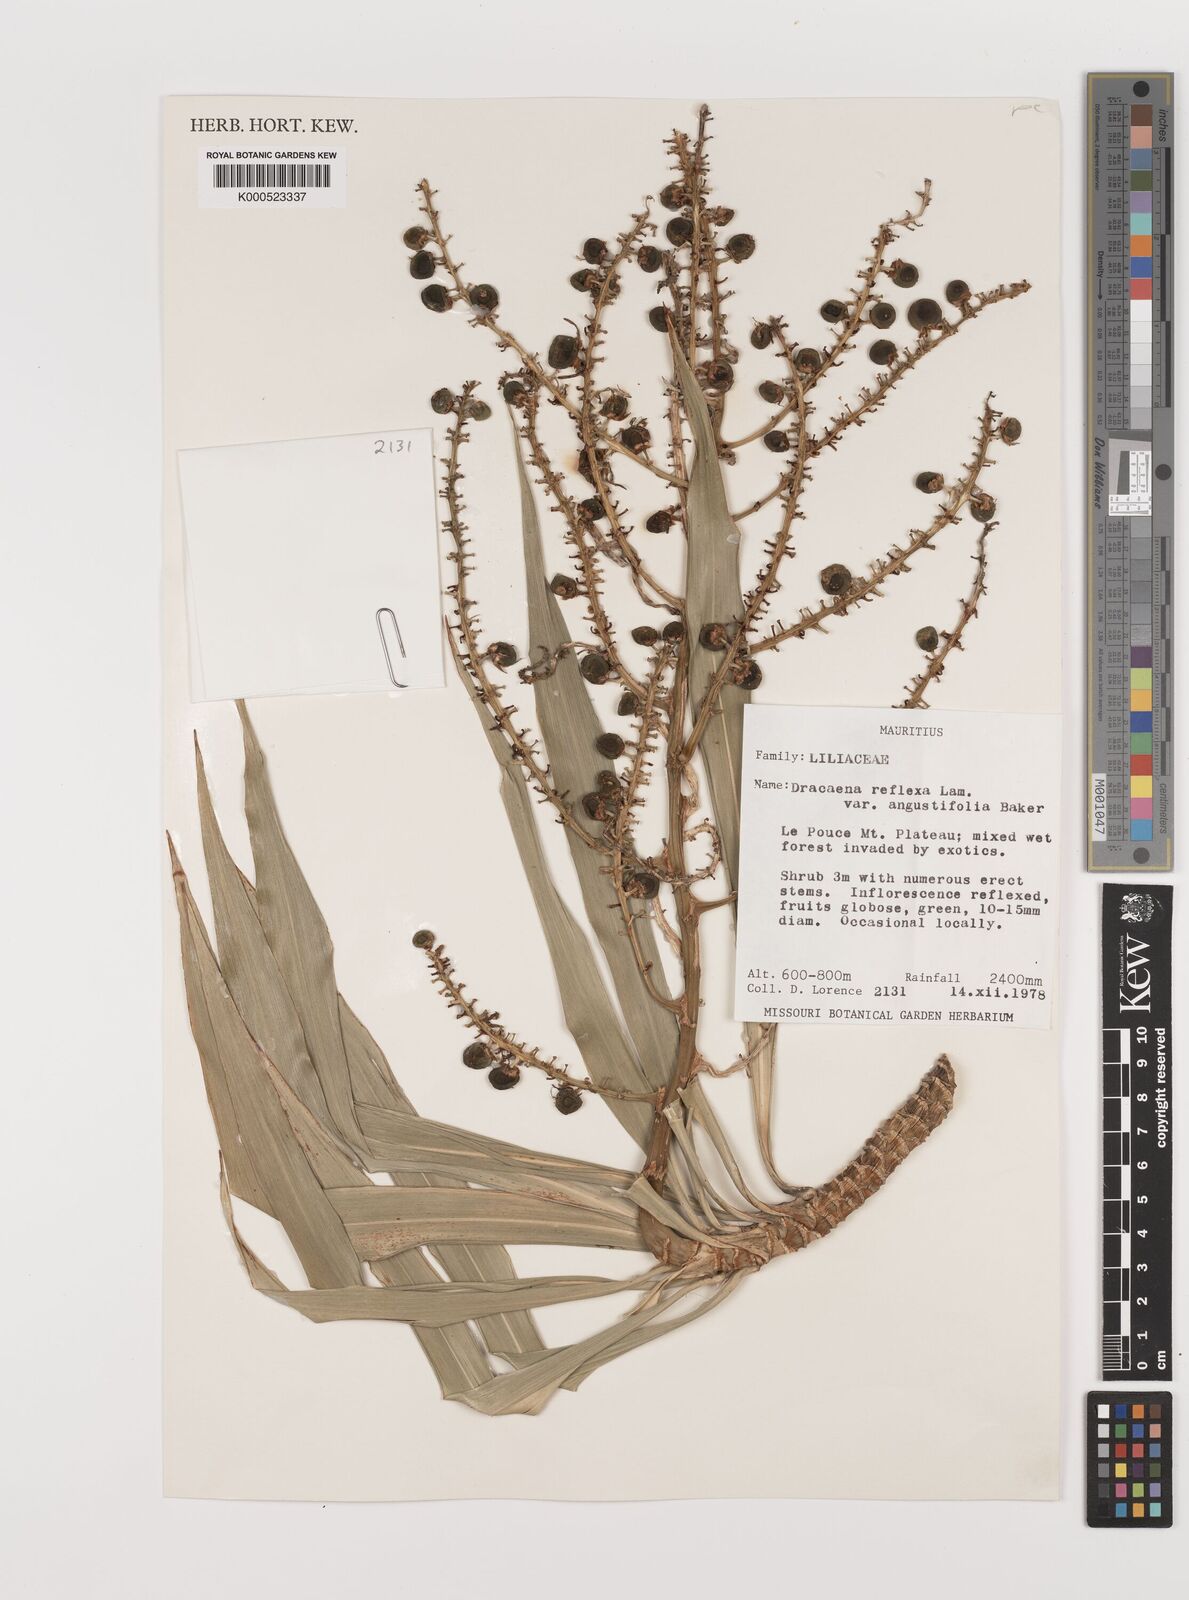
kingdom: Plantae
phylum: Tracheophyta
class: Liliopsida
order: Asparagales
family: Asparagaceae
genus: Dracaena
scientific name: Dracaena reflexa
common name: Song-of-india
